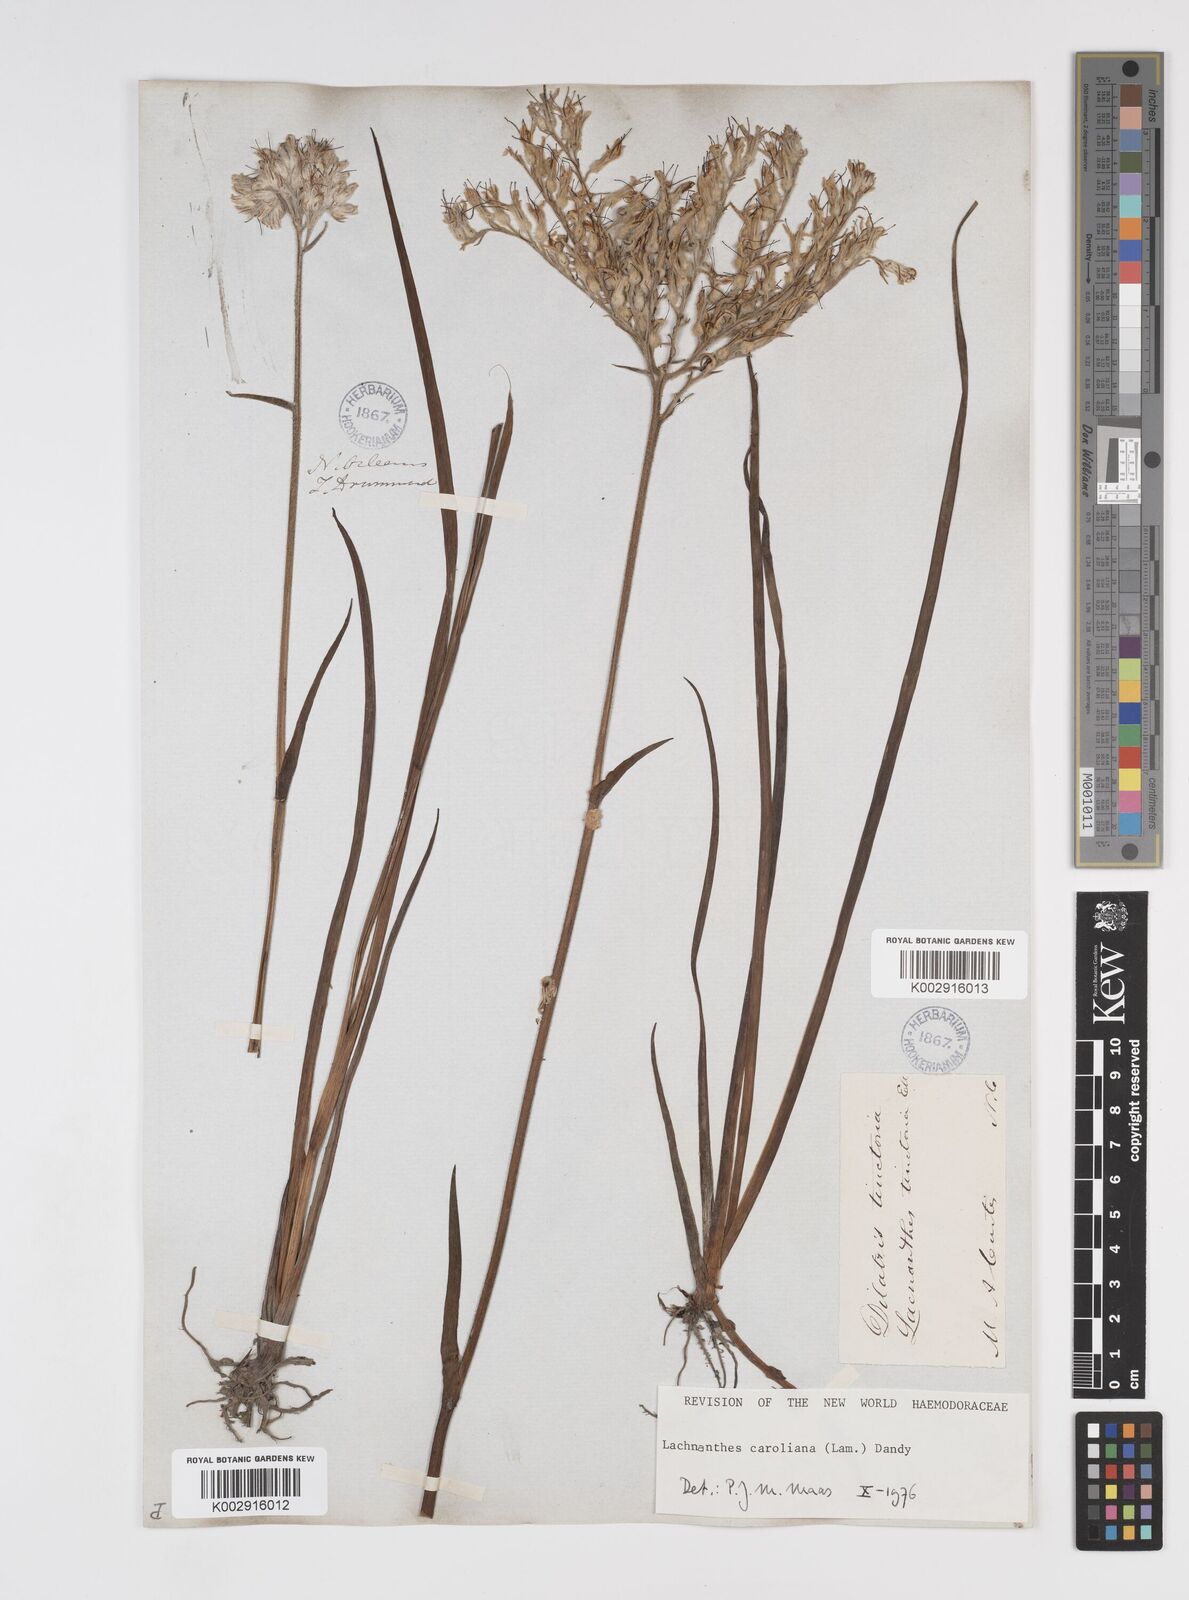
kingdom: Plantae
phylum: Tracheophyta
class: Liliopsida
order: Commelinales
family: Haemodoraceae
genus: Lachnanthes
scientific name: Lachnanthes caroliniana
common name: Carolina redroot
